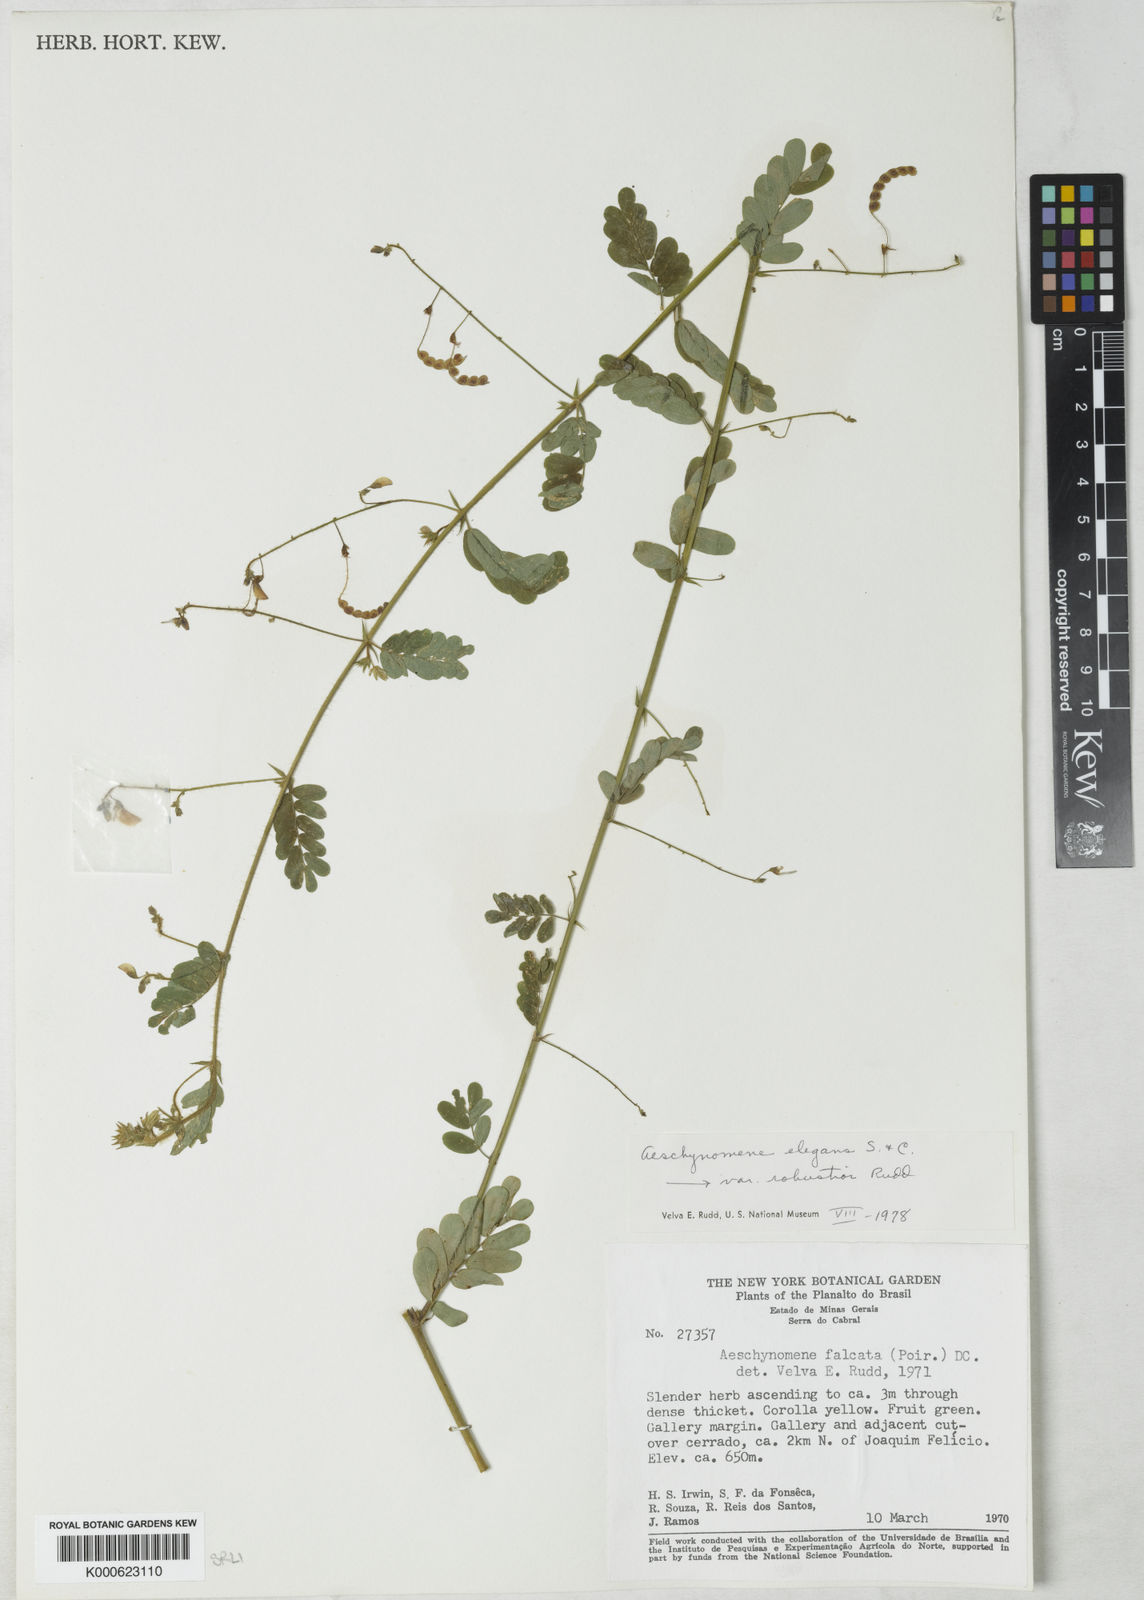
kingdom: Plantae
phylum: Tracheophyta
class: Magnoliopsida
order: Fabales
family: Fabaceae
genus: Ctenodon
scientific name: Ctenodon elegans
